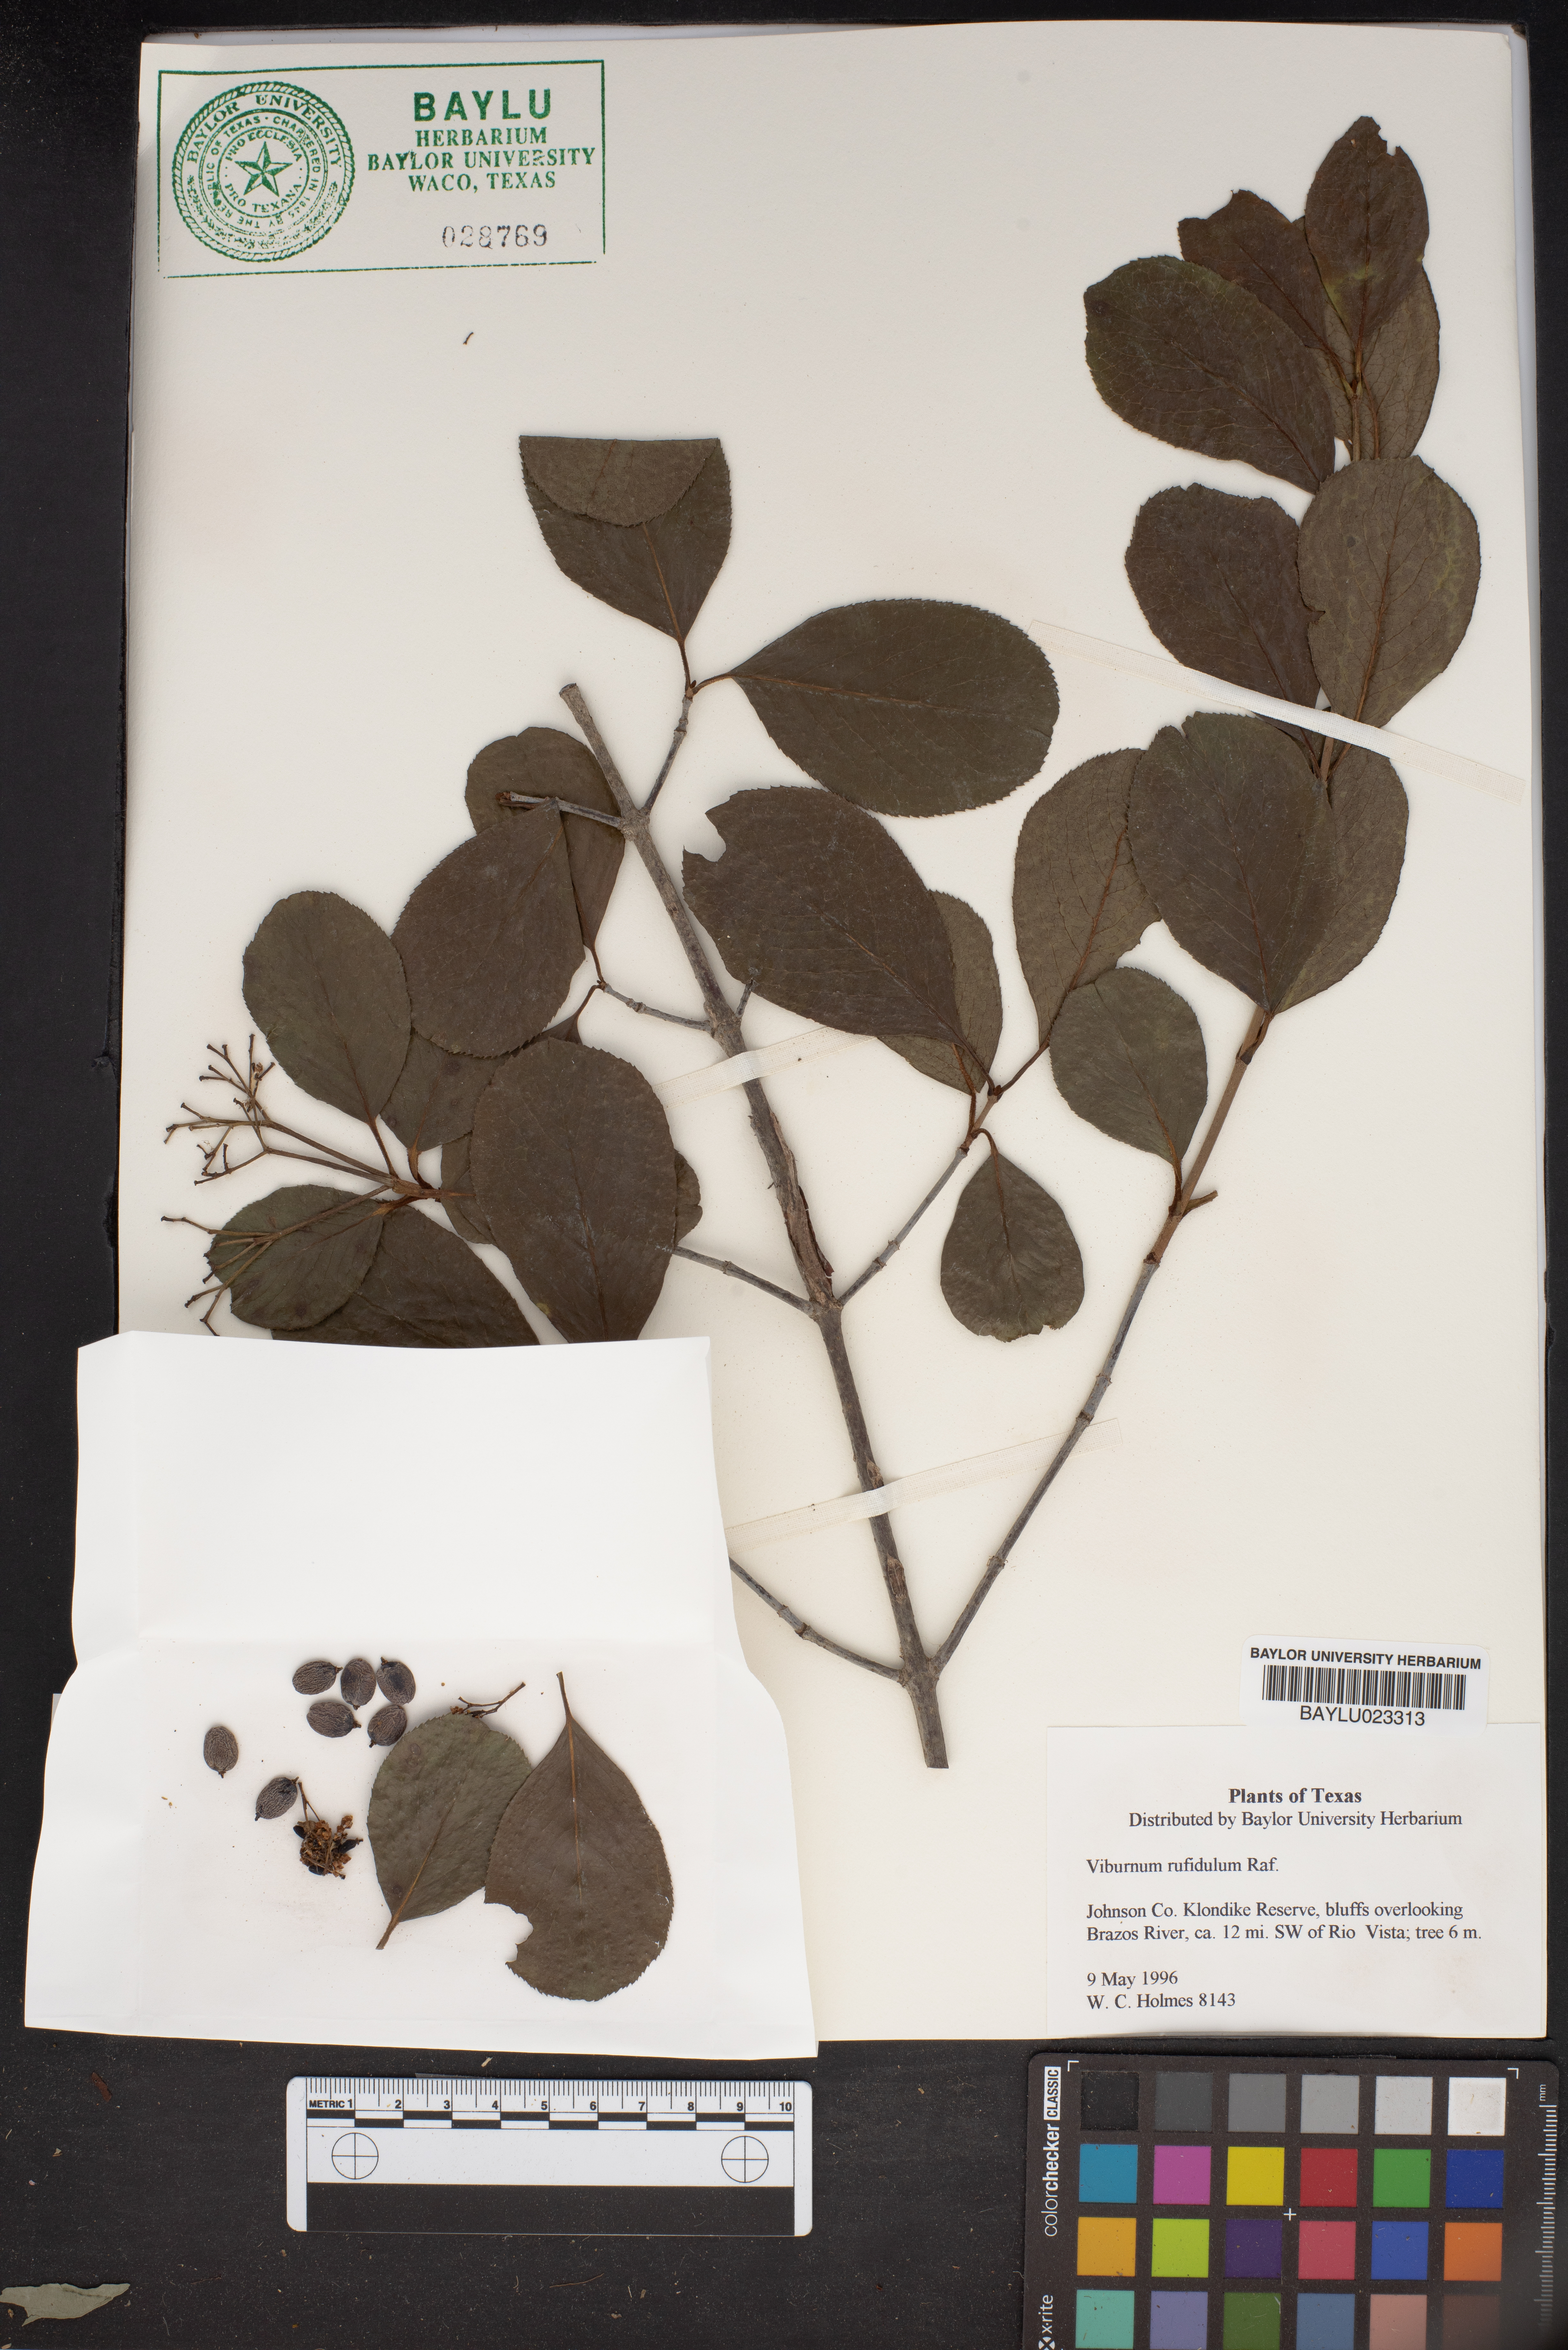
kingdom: Plantae
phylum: Tracheophyta
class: Magnoliopsida
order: Dipsacales
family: Viburnaceae
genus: Viburnum
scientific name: Viburnum rufidulum
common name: Blue haw
